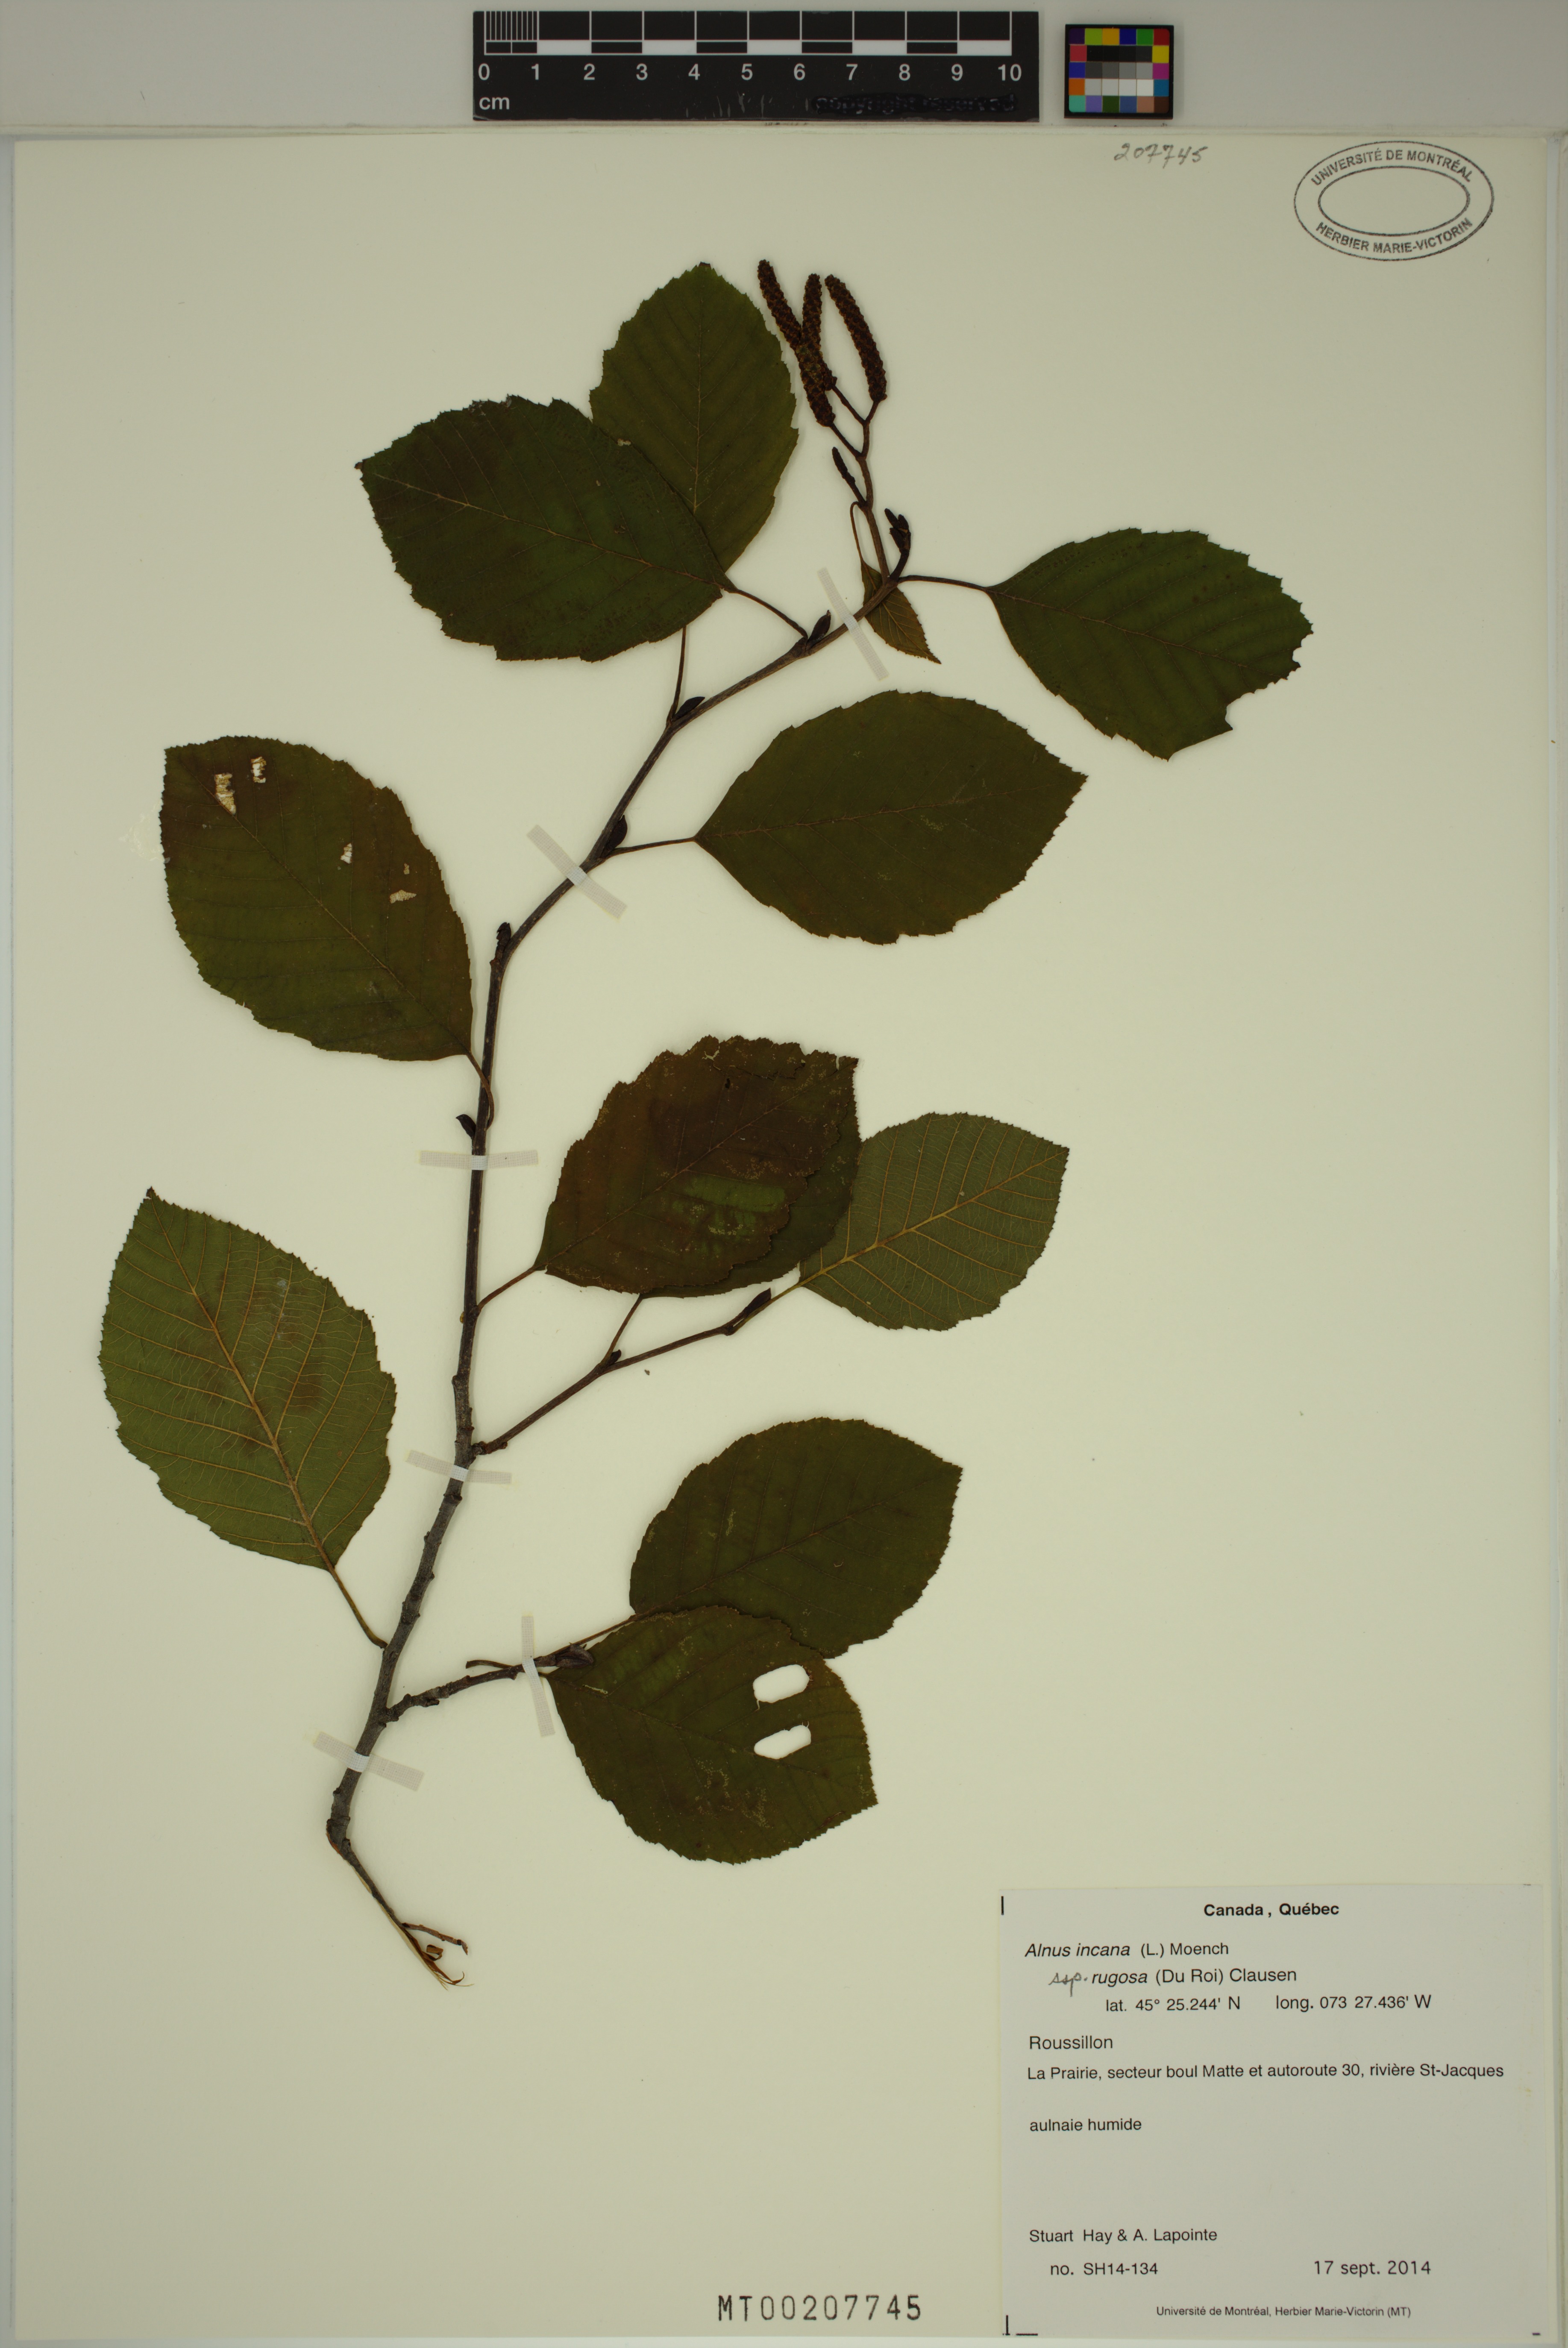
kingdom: Plantae
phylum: Tracheophyta
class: Magnoliopsida
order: Fagales
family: Betulaceae
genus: Alnus
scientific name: Alnus incana
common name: Grey alder
